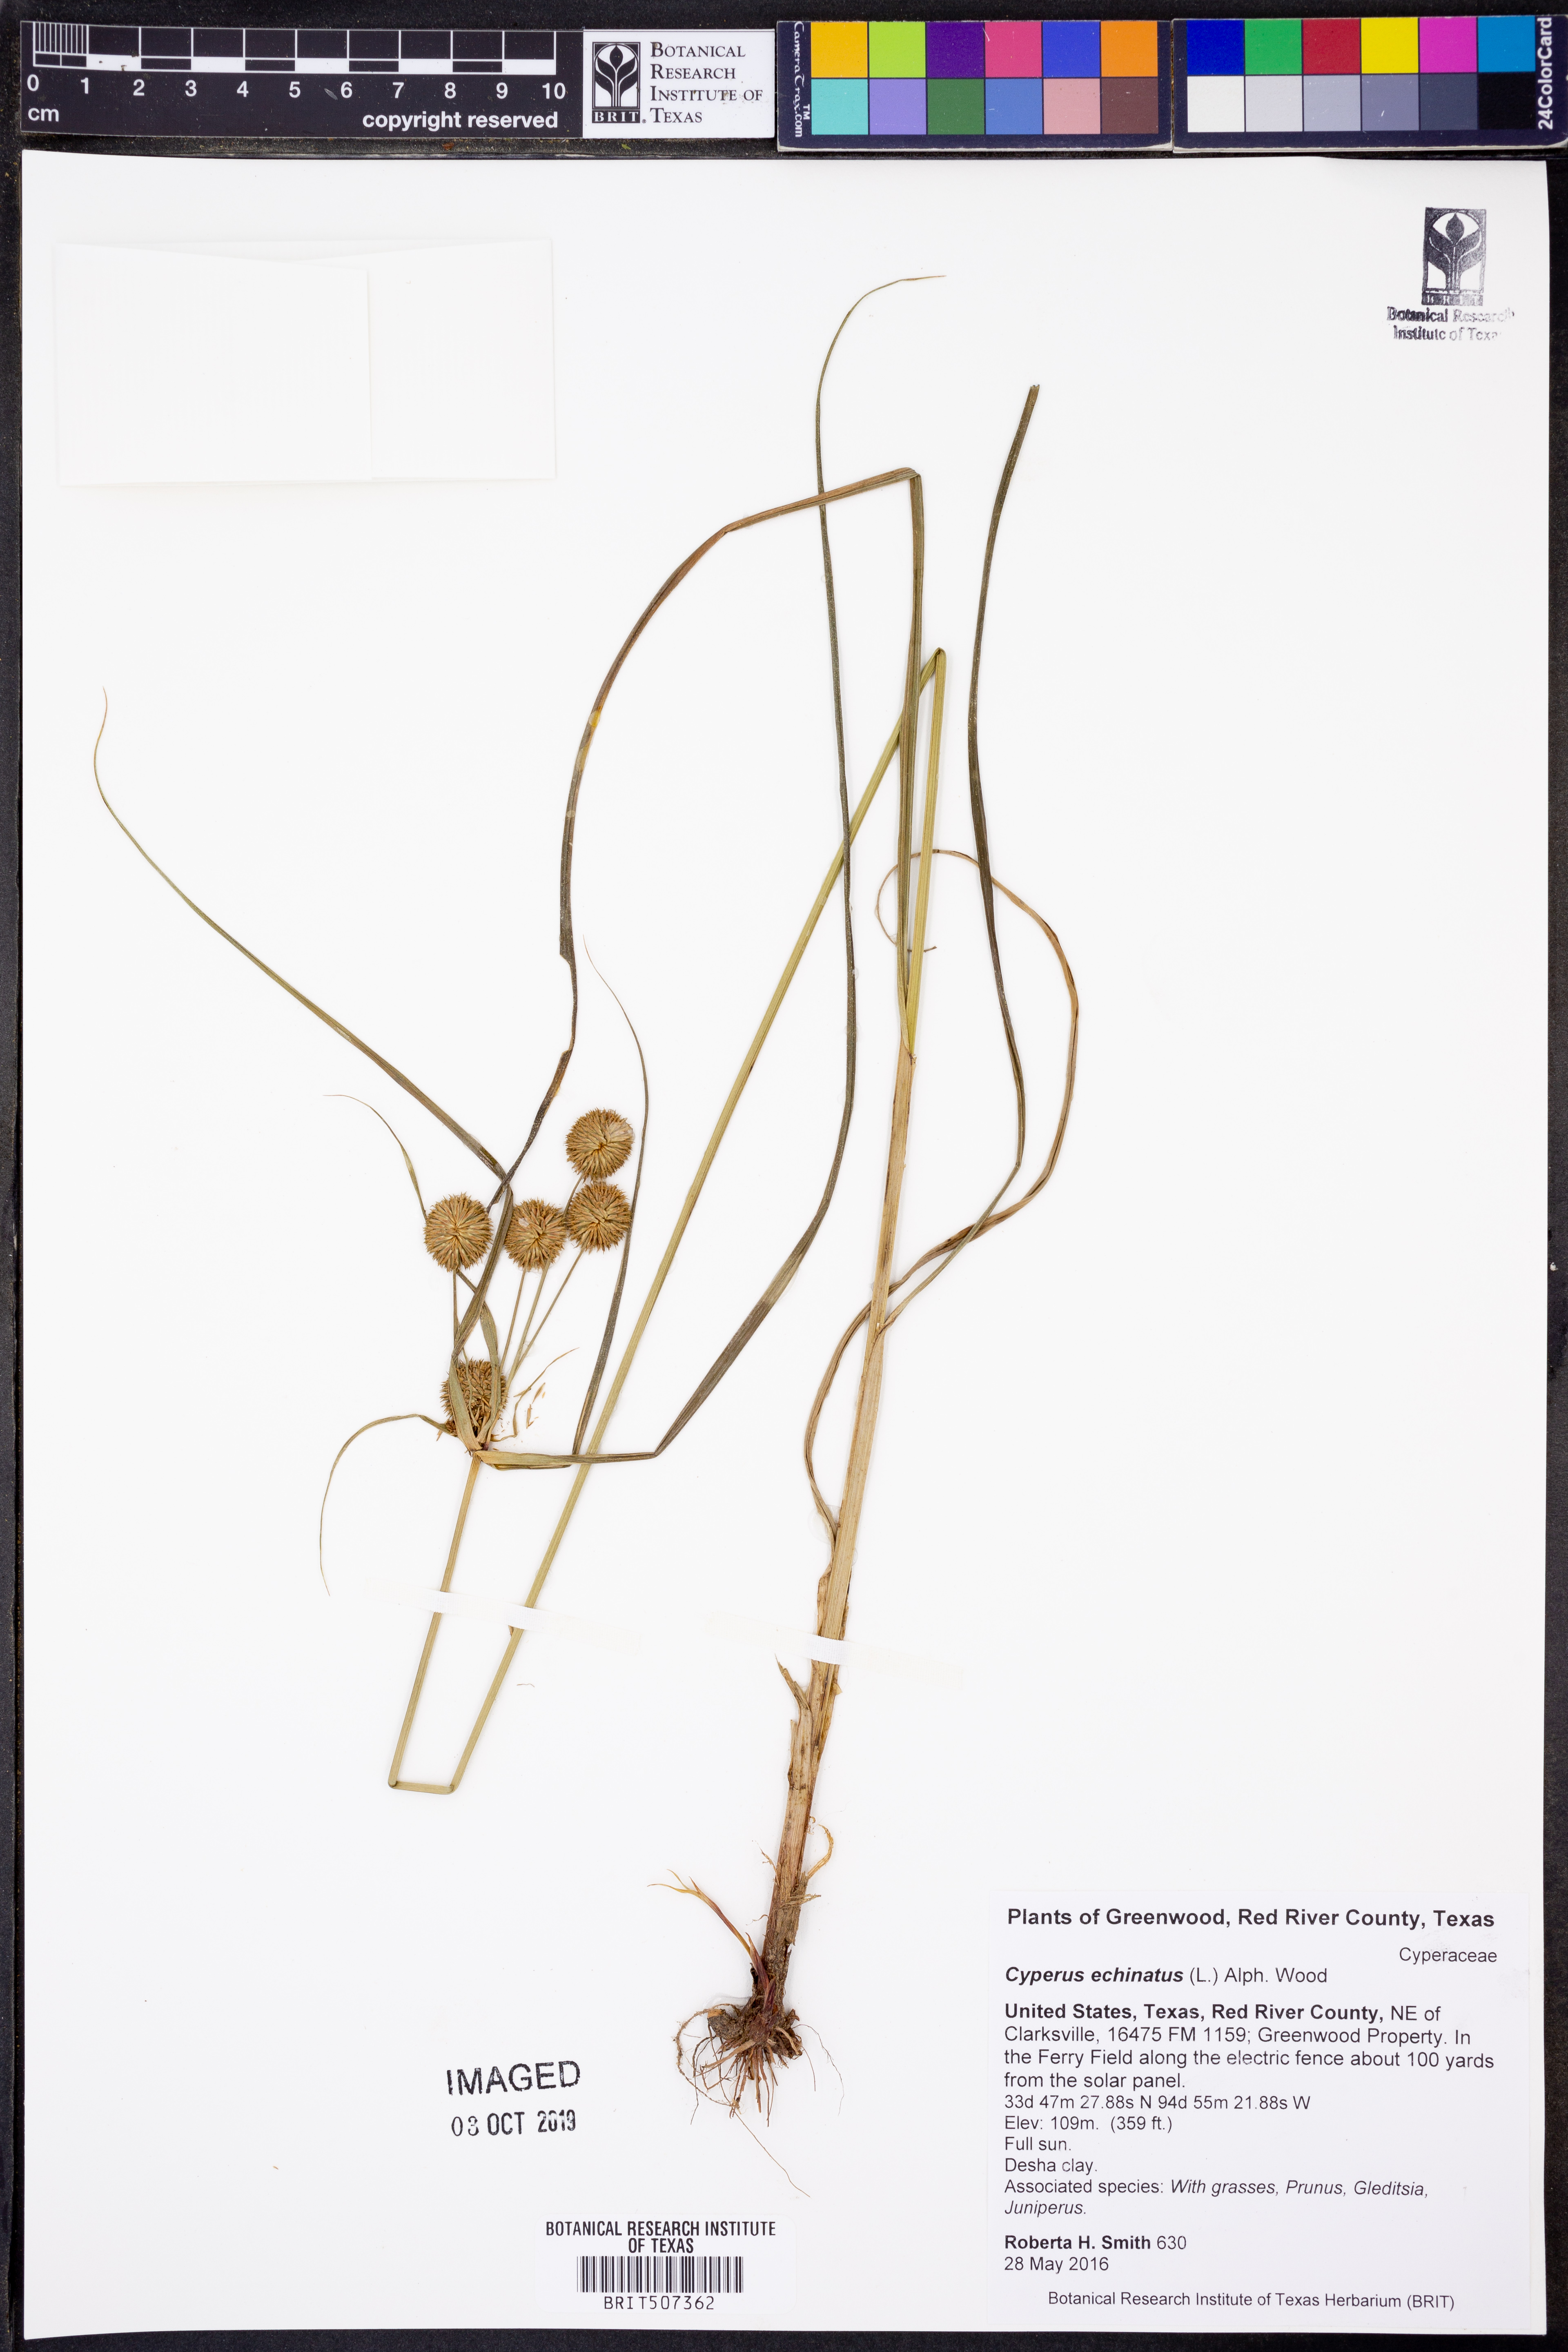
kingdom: Plantae
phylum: Tracheophyta
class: Liliopsida
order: Poales
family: Cyperaceae
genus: Cyperus
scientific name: Cyperus echinatus
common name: Teasel sedge
